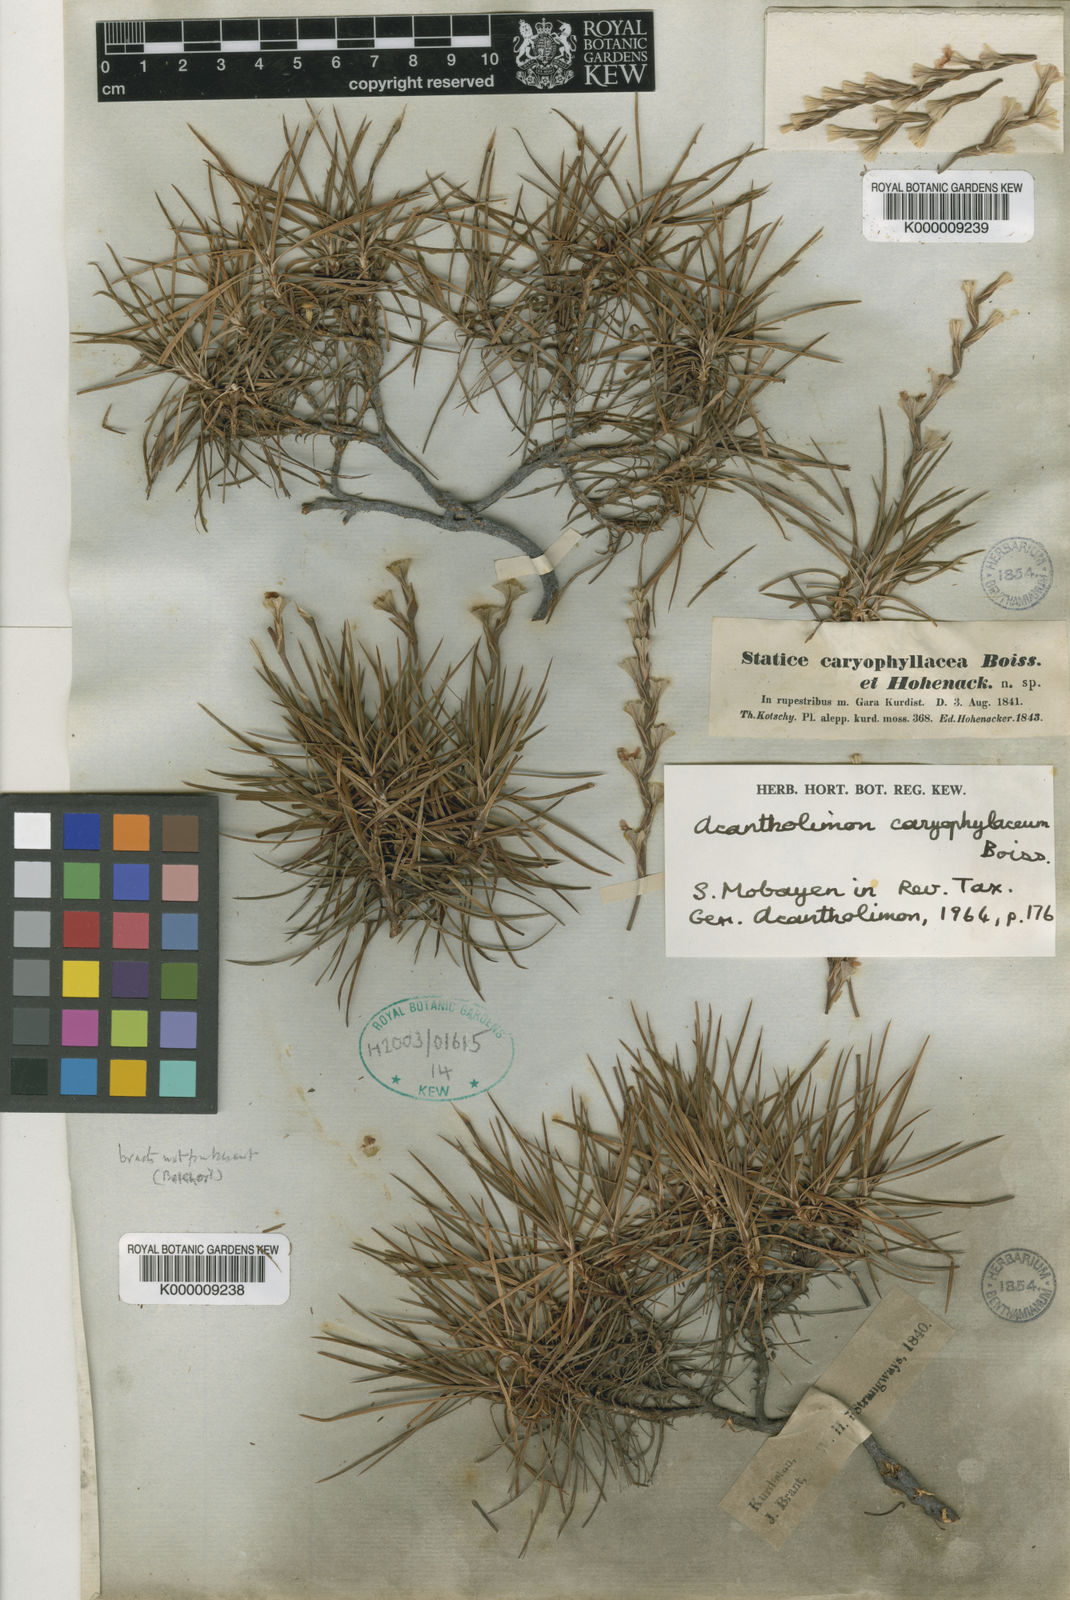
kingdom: Plantae
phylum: Tracheophyta
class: Magnoliopsida
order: Caryophyllales
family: Plumbaginaceae
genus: Acantholimon
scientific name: Acantholimon caryophyllaceum
